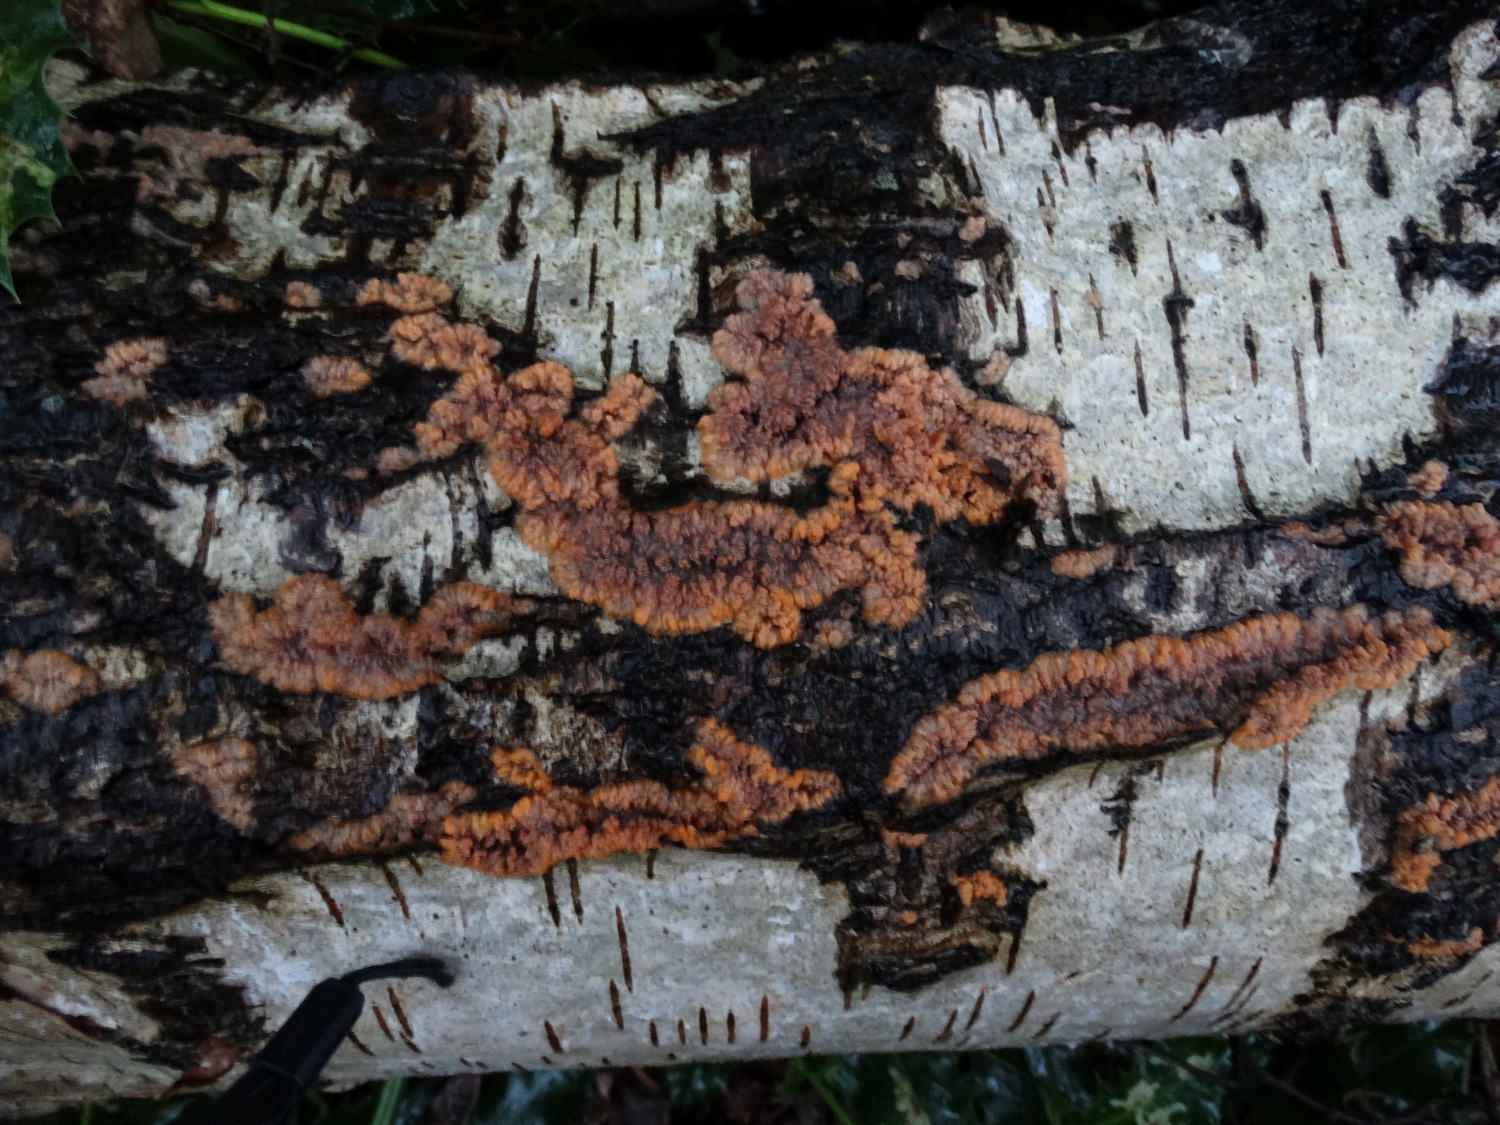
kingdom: Fungi
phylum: Basidiomycota
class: Agaricomycetes
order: Polyporales
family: Meruliaceae
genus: Phlebia
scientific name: Phlebia radiata
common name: stråle-åresvamp
